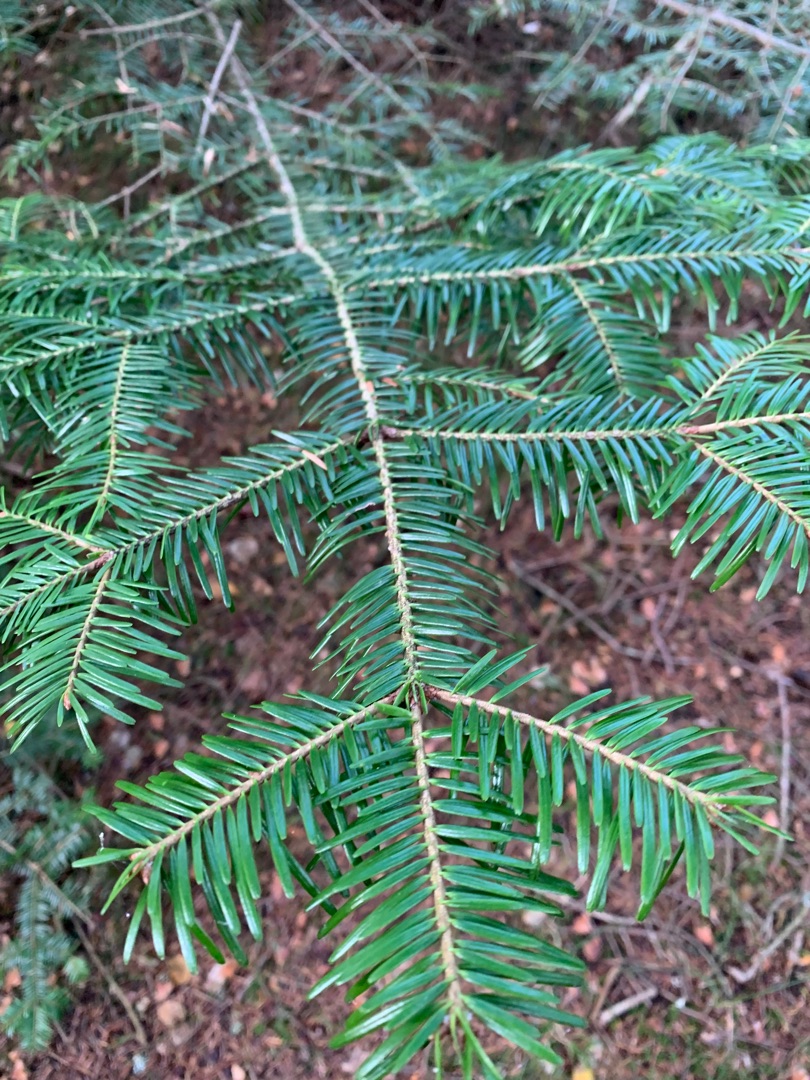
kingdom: Plantae
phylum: Tracheophyta
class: Pinopsida
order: Pinales
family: Pinaceae
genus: Abies
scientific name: Abies alba
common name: Almindelig ædelgran
